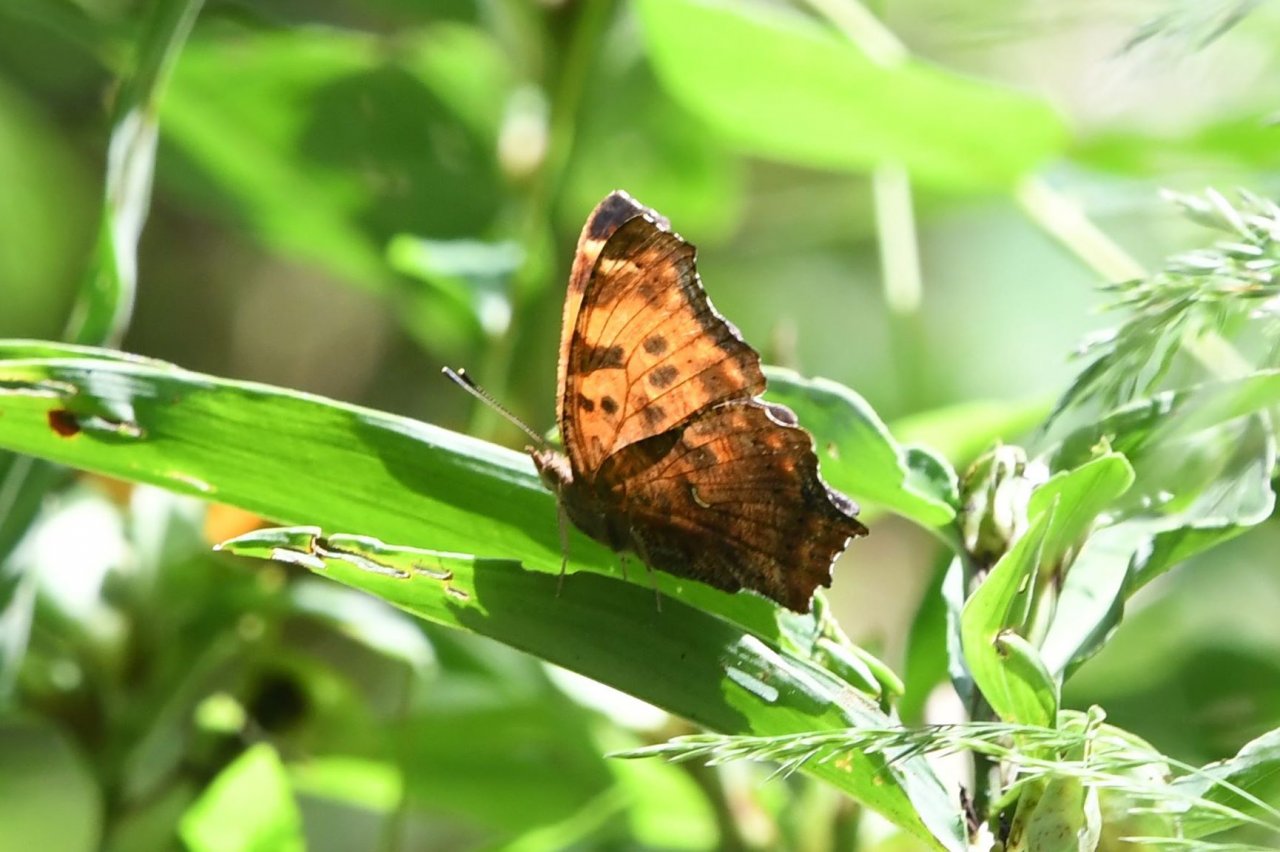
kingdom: Animalia
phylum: Arthropoda
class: Insecta
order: Lepidoptera
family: Nymphalidae
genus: Polygonia
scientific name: Polygonia comma
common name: Eastern Comma
